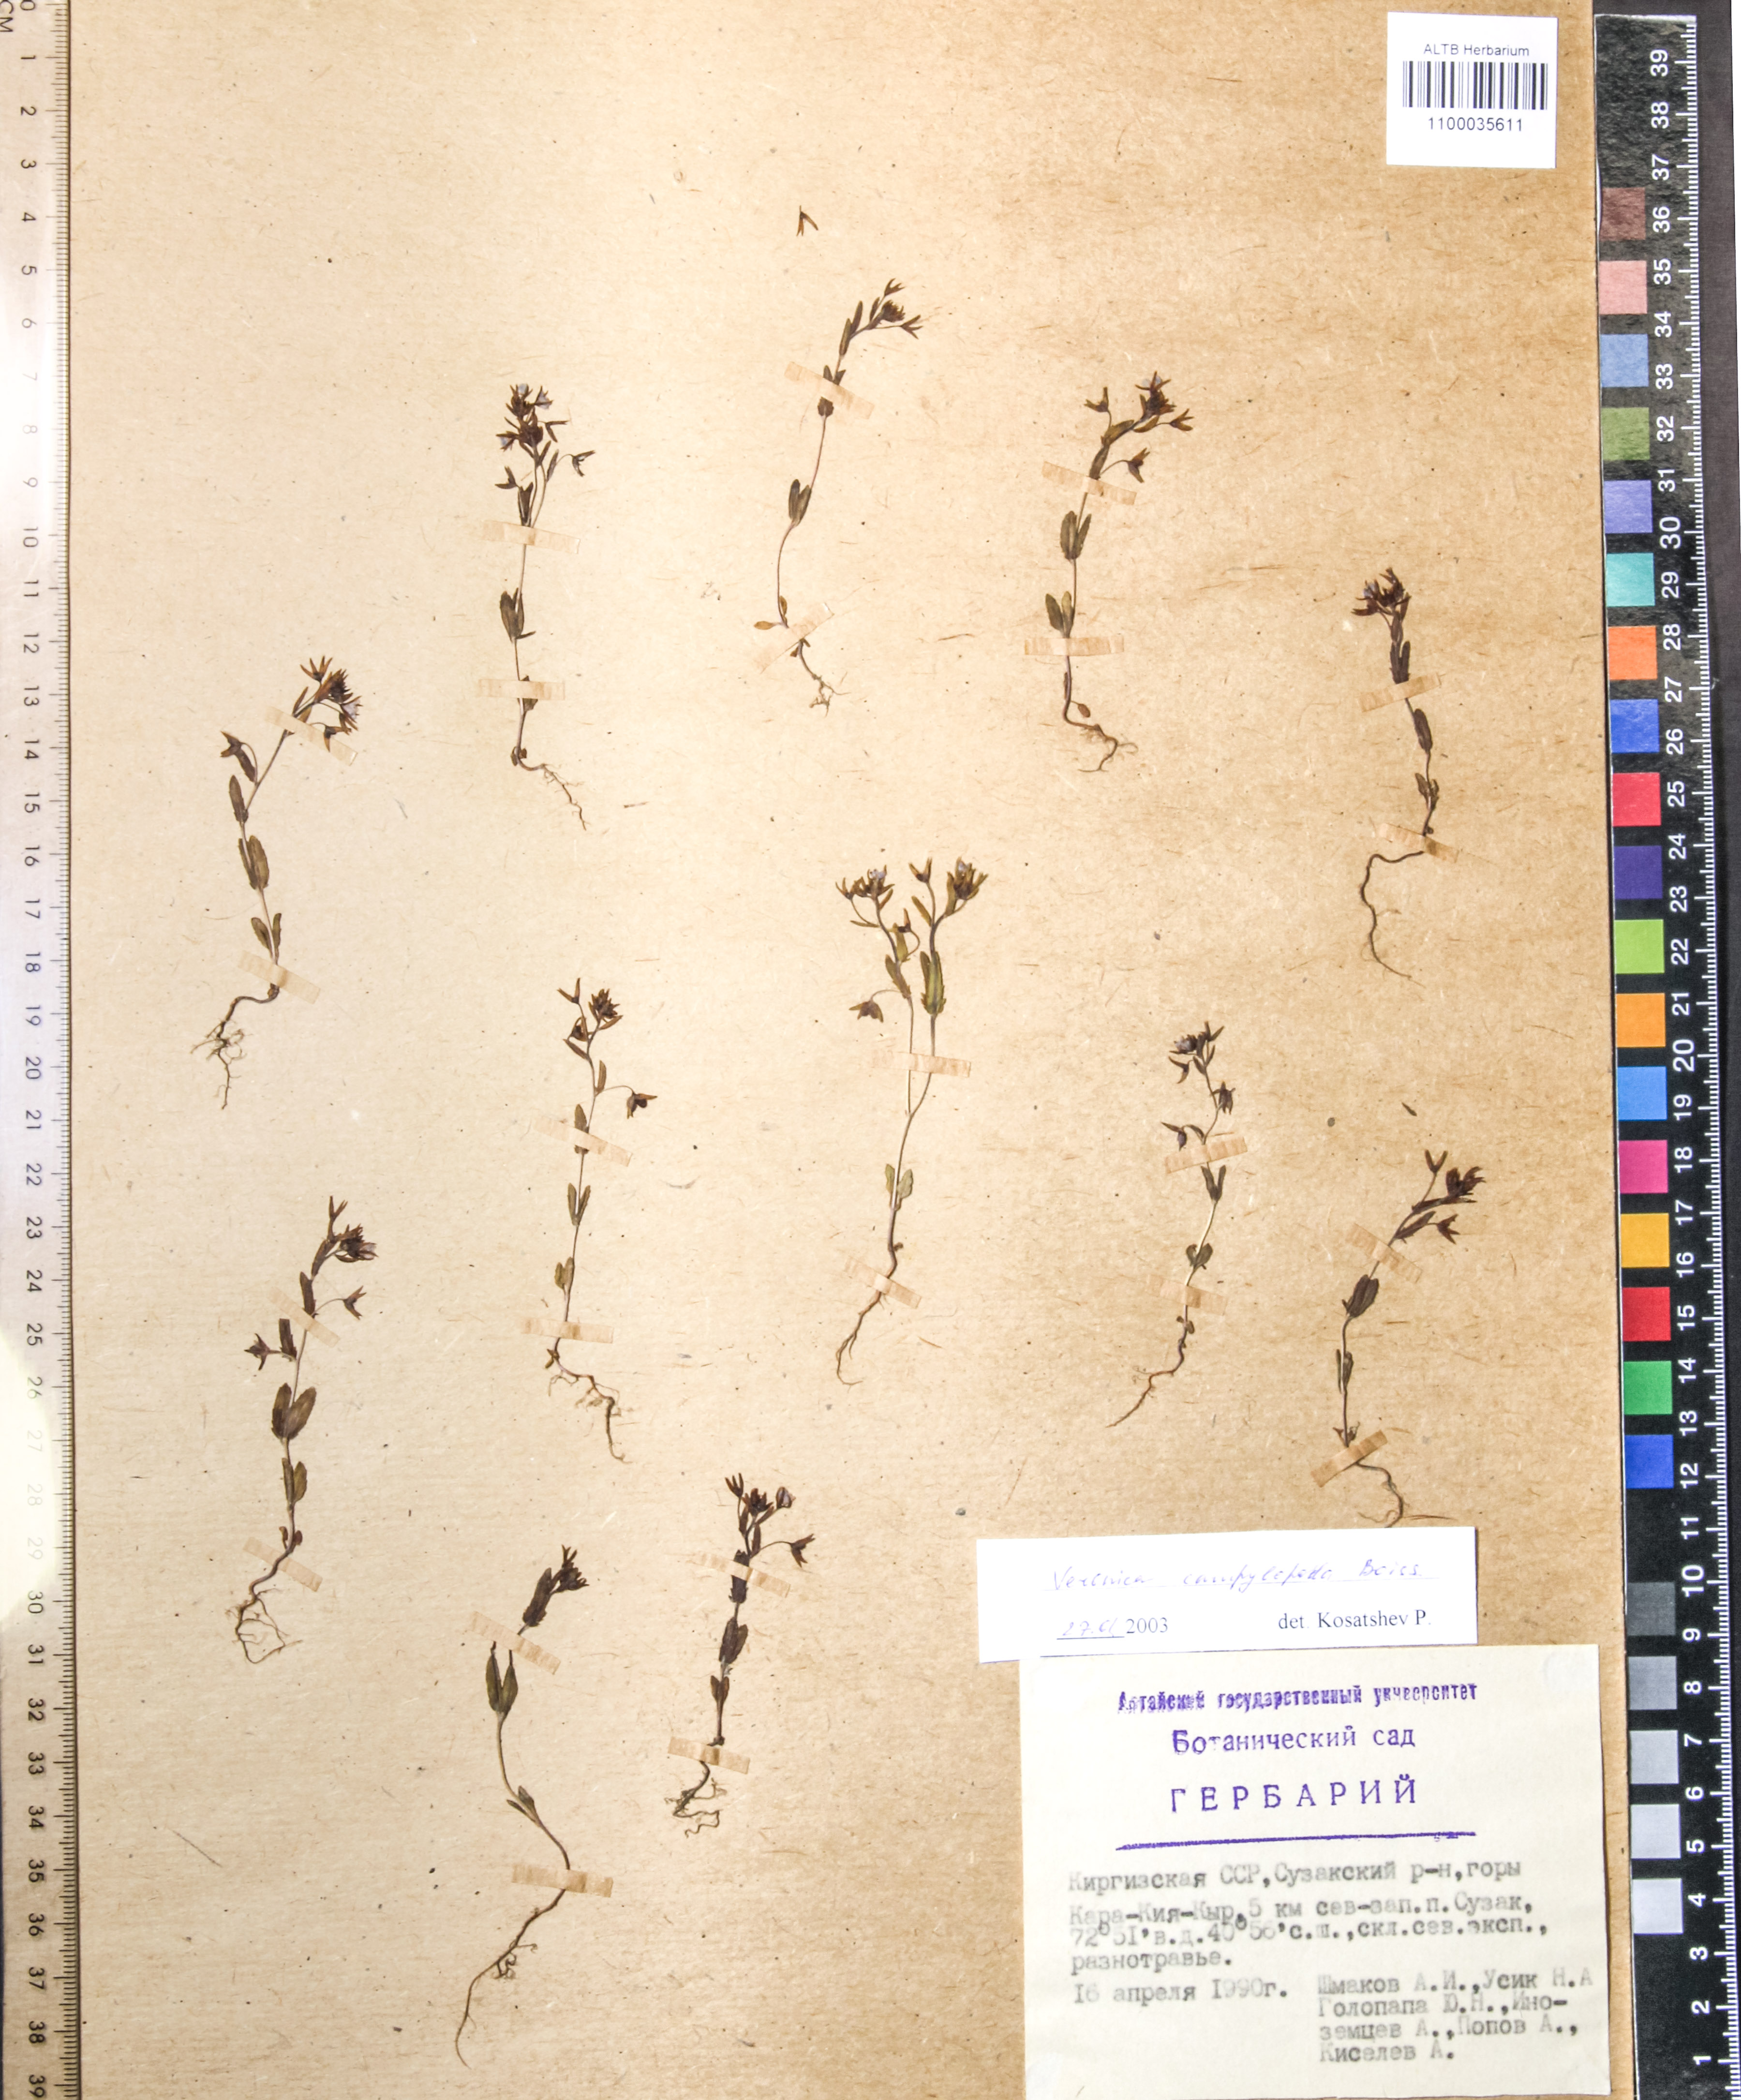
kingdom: Plantae
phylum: Tracheophyta
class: Magnoliopsida
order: Lamiales
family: Plantaginaceae
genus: Veronica
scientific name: Veronica campylopoda
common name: Bent-foot speedwell
